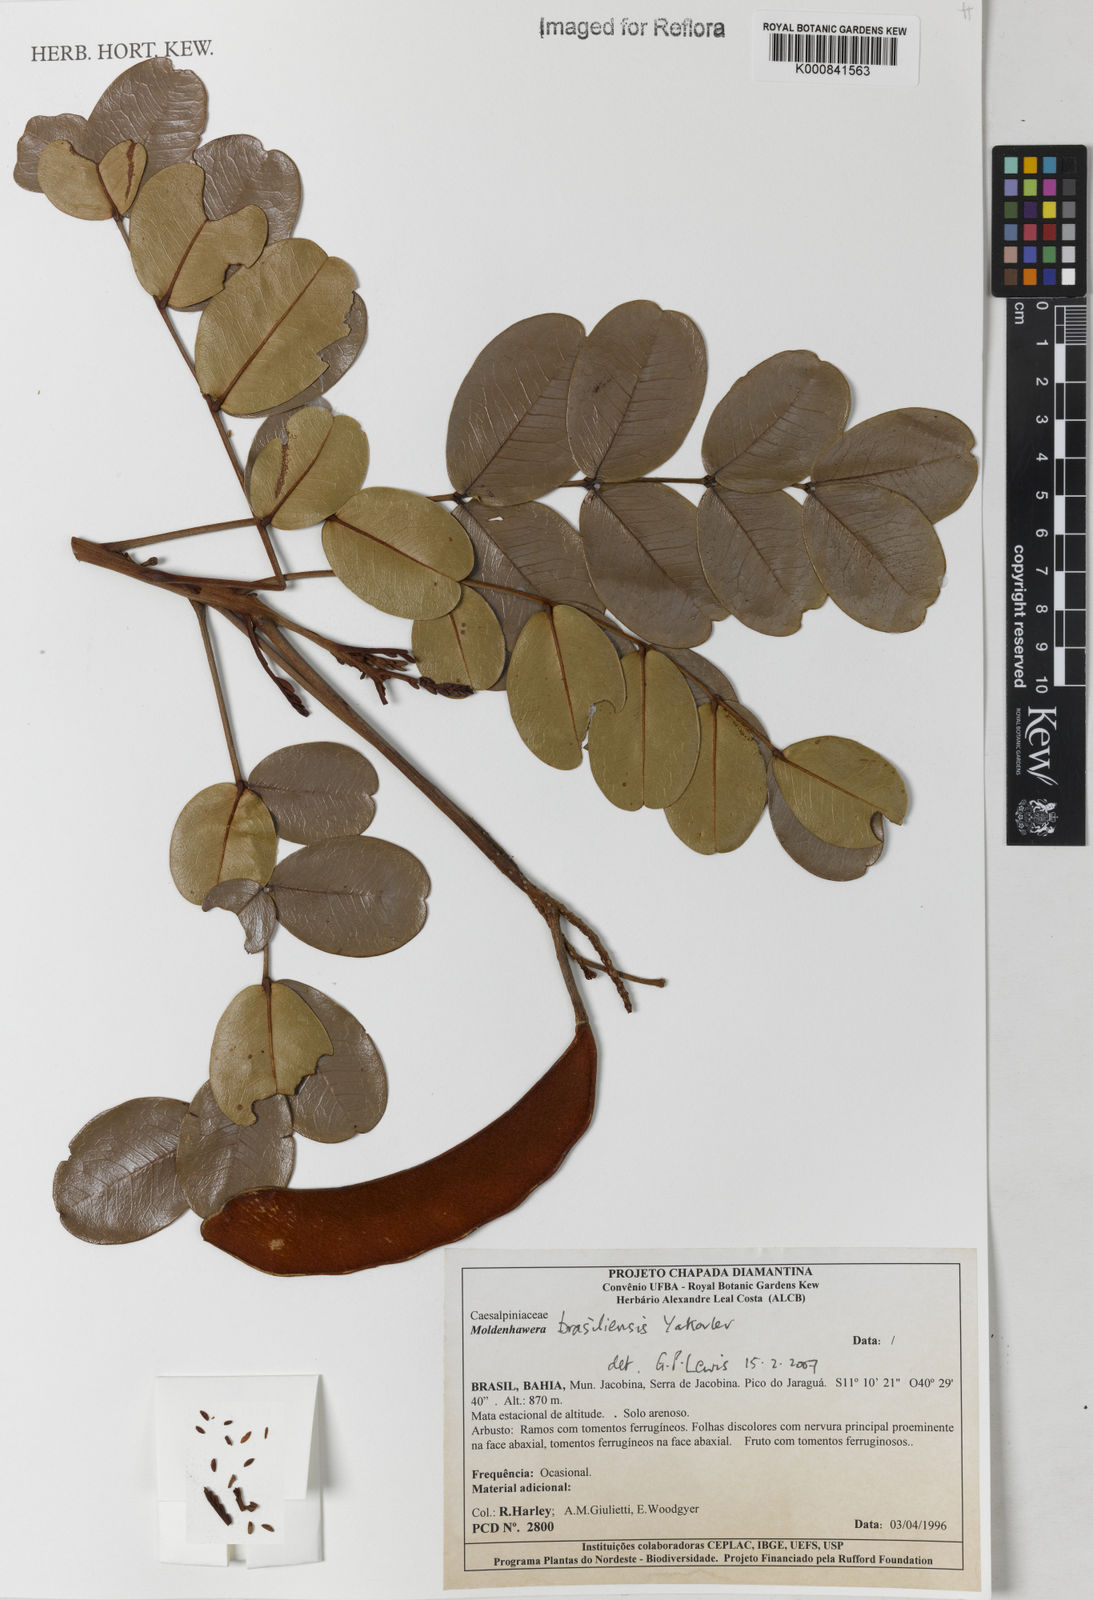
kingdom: Plantae
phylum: Tracheophyta
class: Magnoliopsida
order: Fabales
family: Fabaceae
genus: Moldenhawera
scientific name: Moldenhawera brasiliensis
